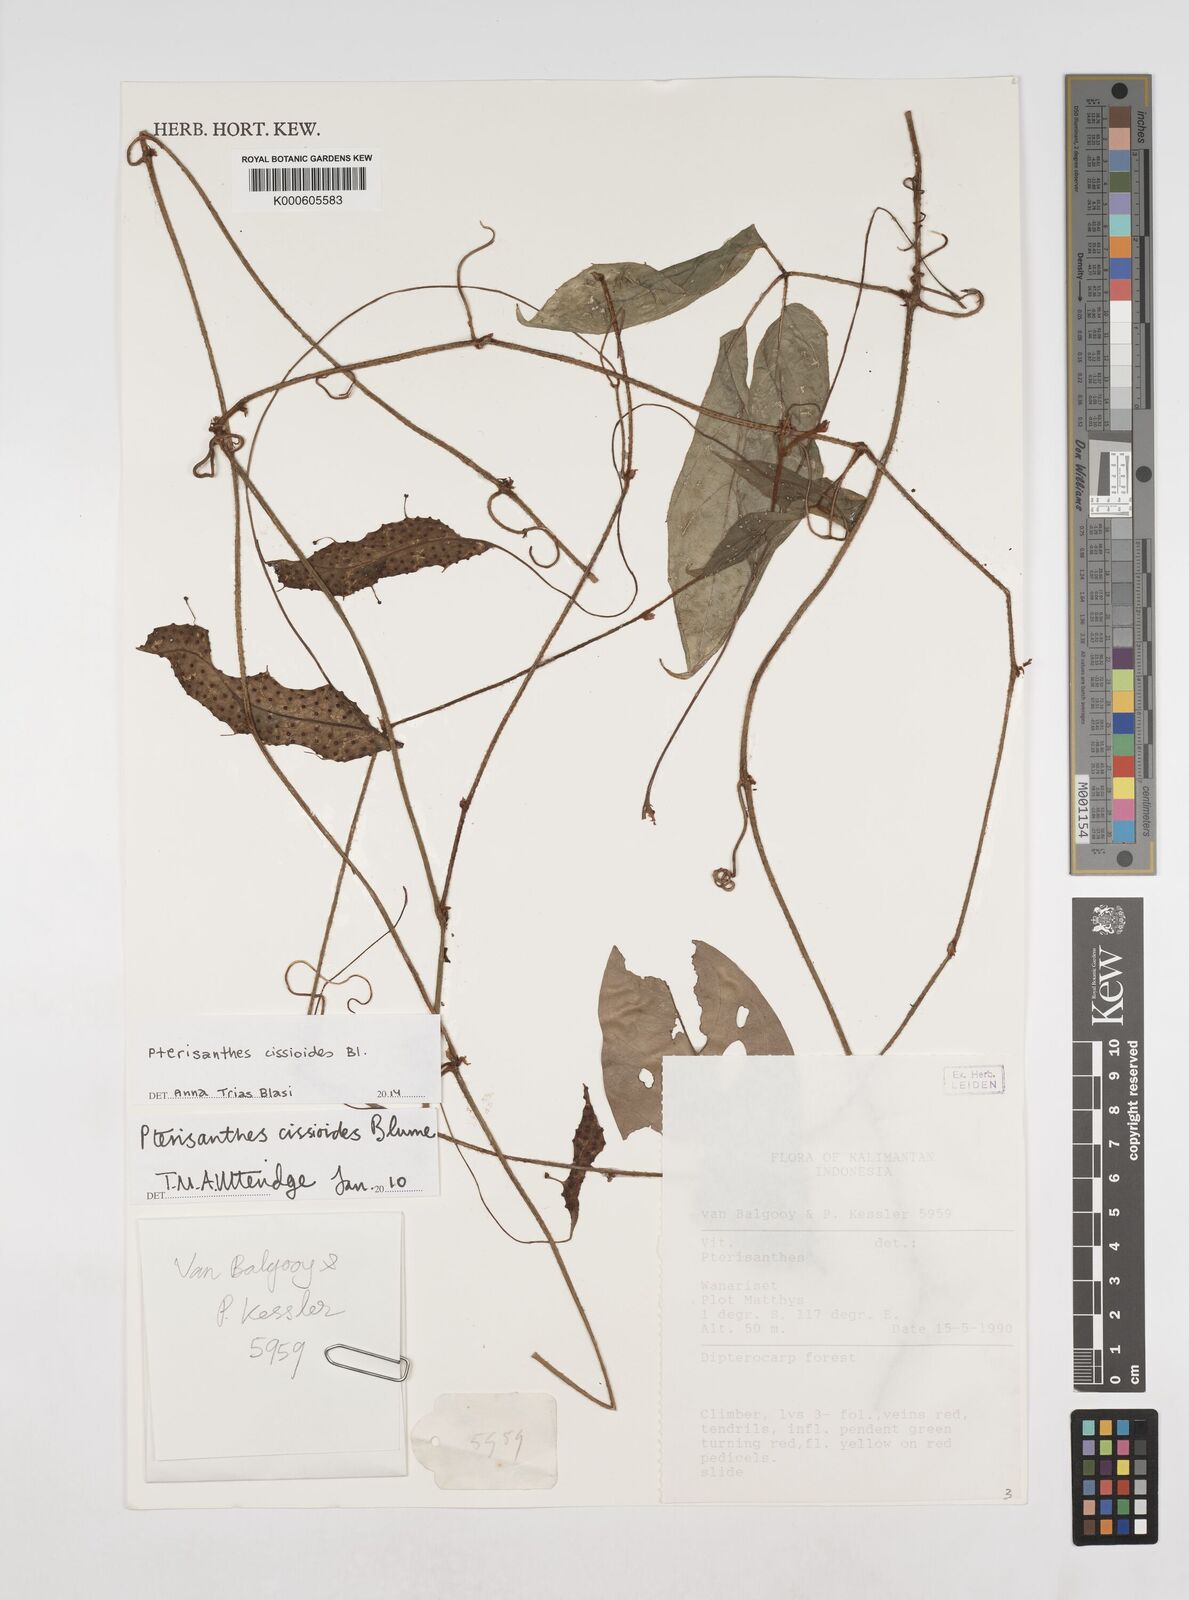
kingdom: Plantae
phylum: Tracheophyta
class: Magnoliopsida
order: Vitales
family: Vitaceae
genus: Pterisanthes
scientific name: Pterisanthes cissioides
